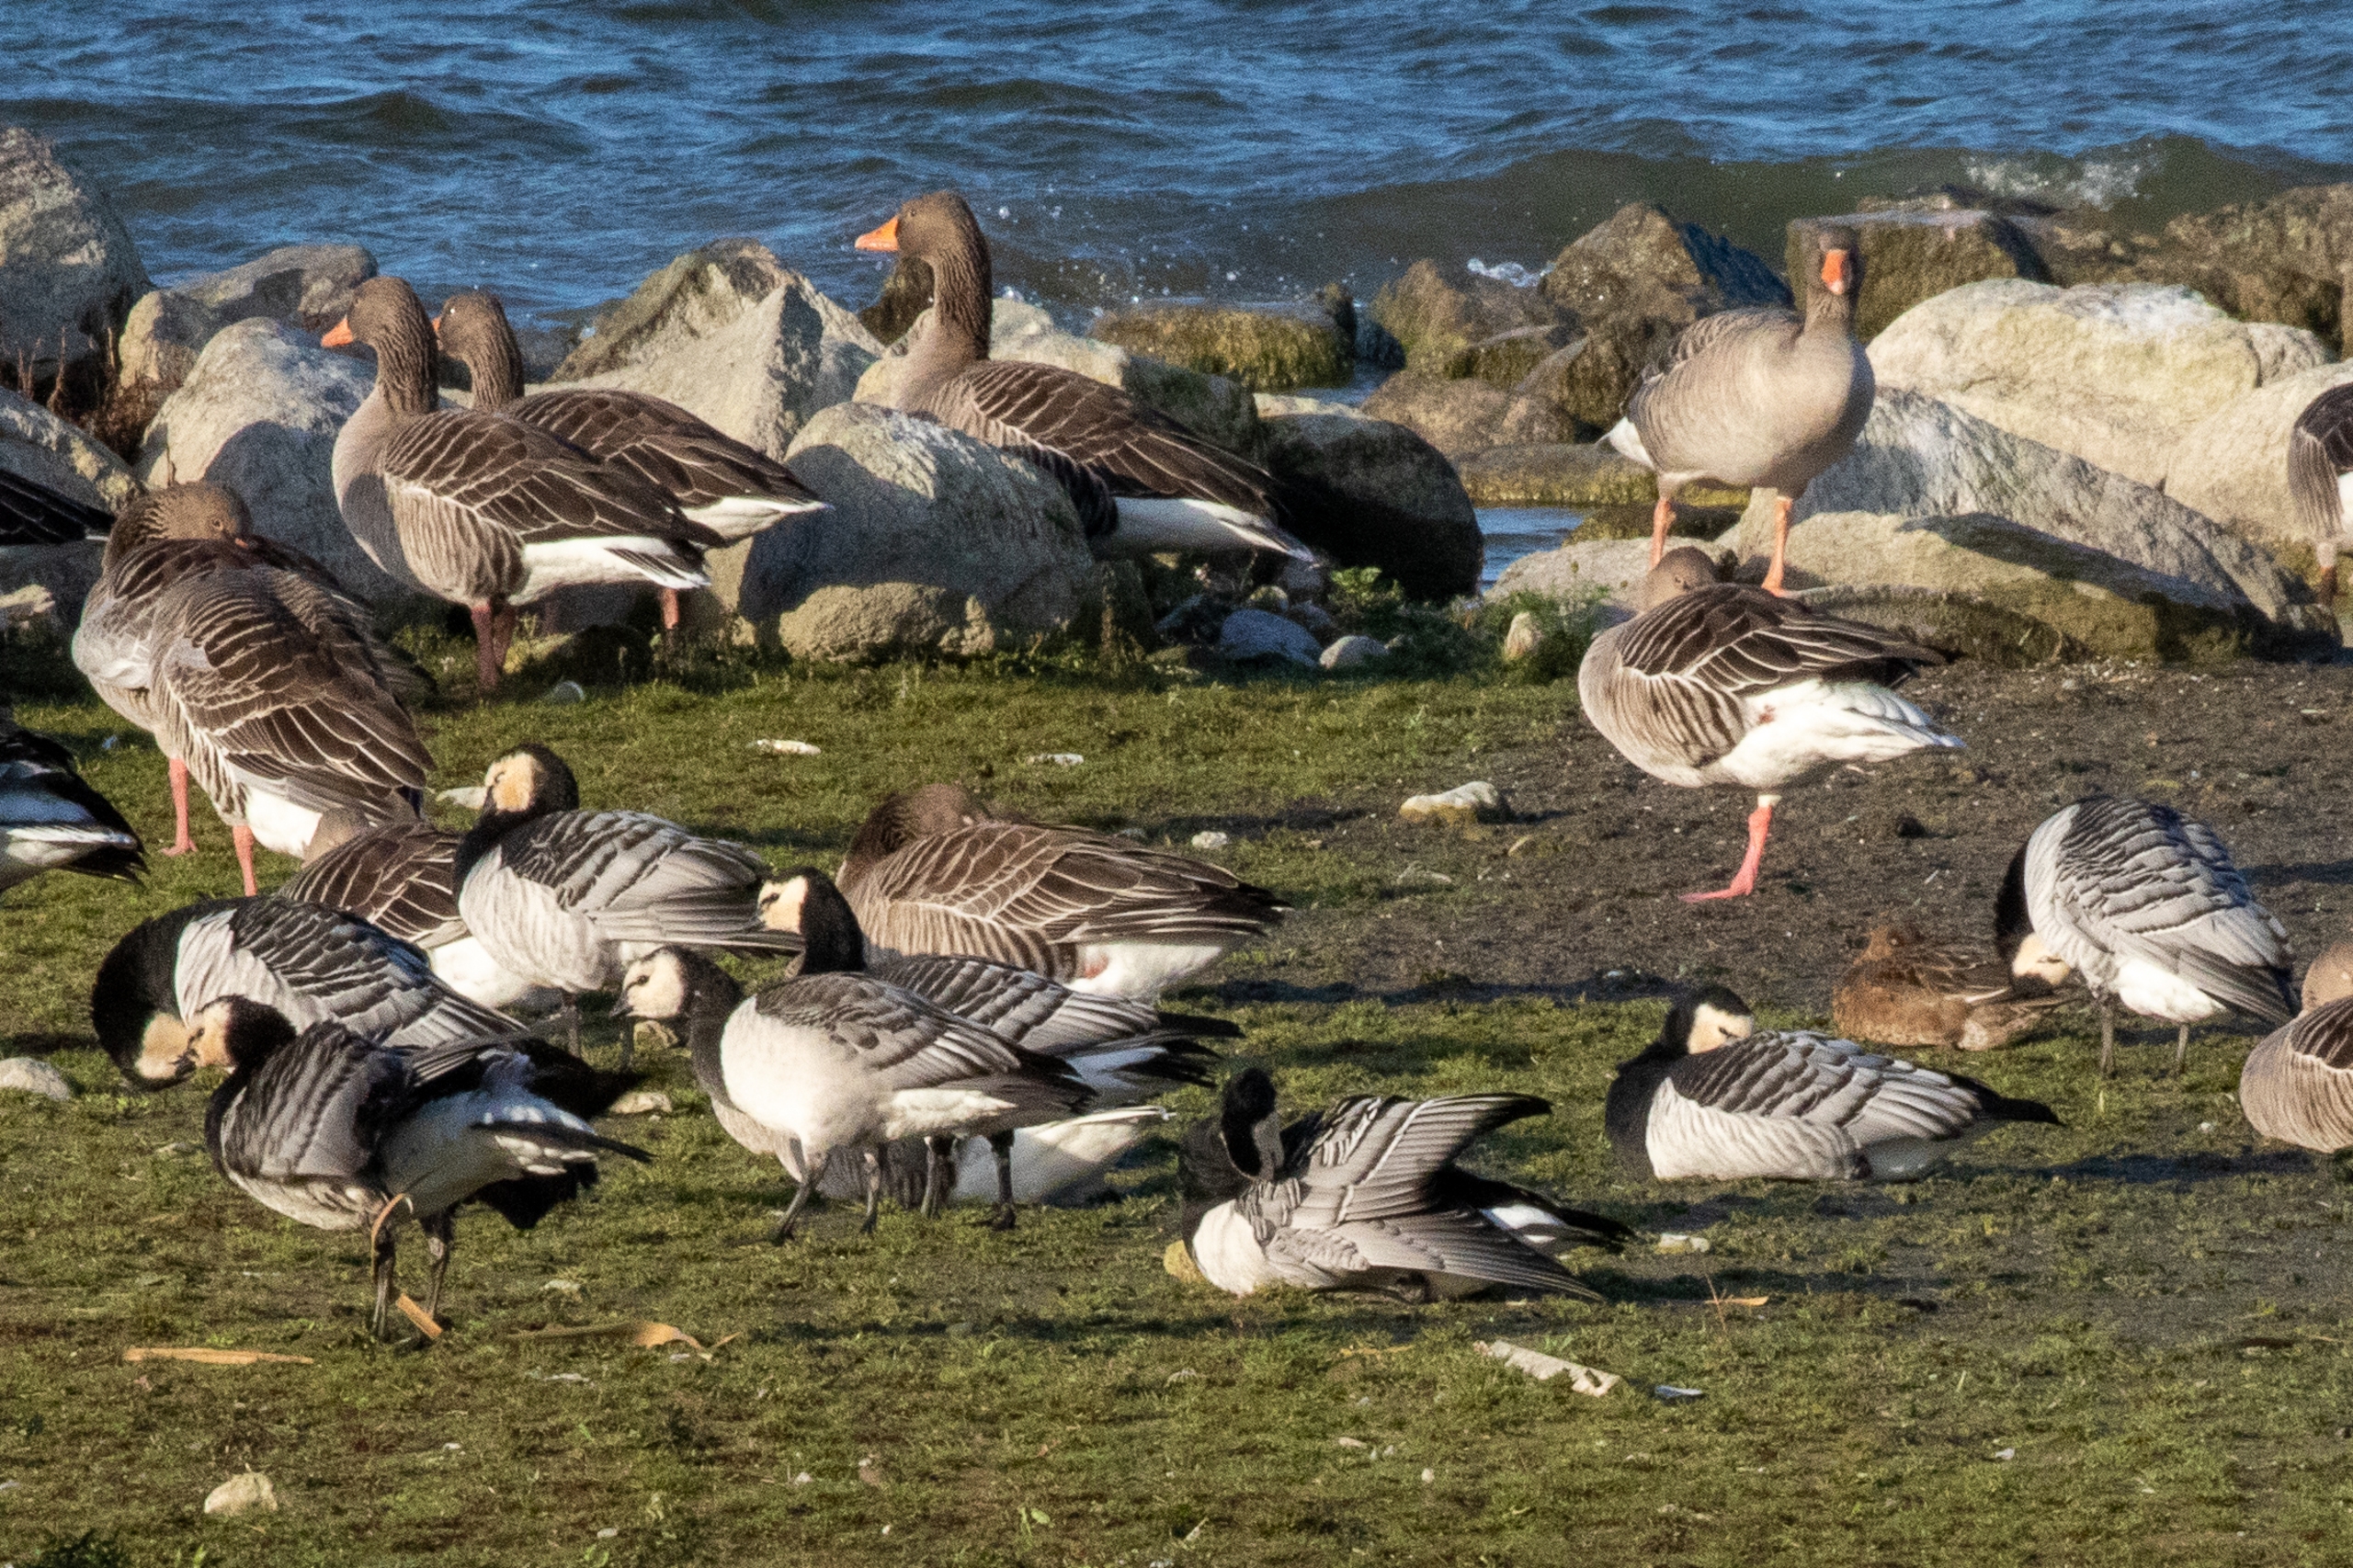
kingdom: Animalia
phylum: Chordata
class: Aves
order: Anseriformes
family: Anatidae
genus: Branta
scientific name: Branta leucopsis
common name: Bramgås
